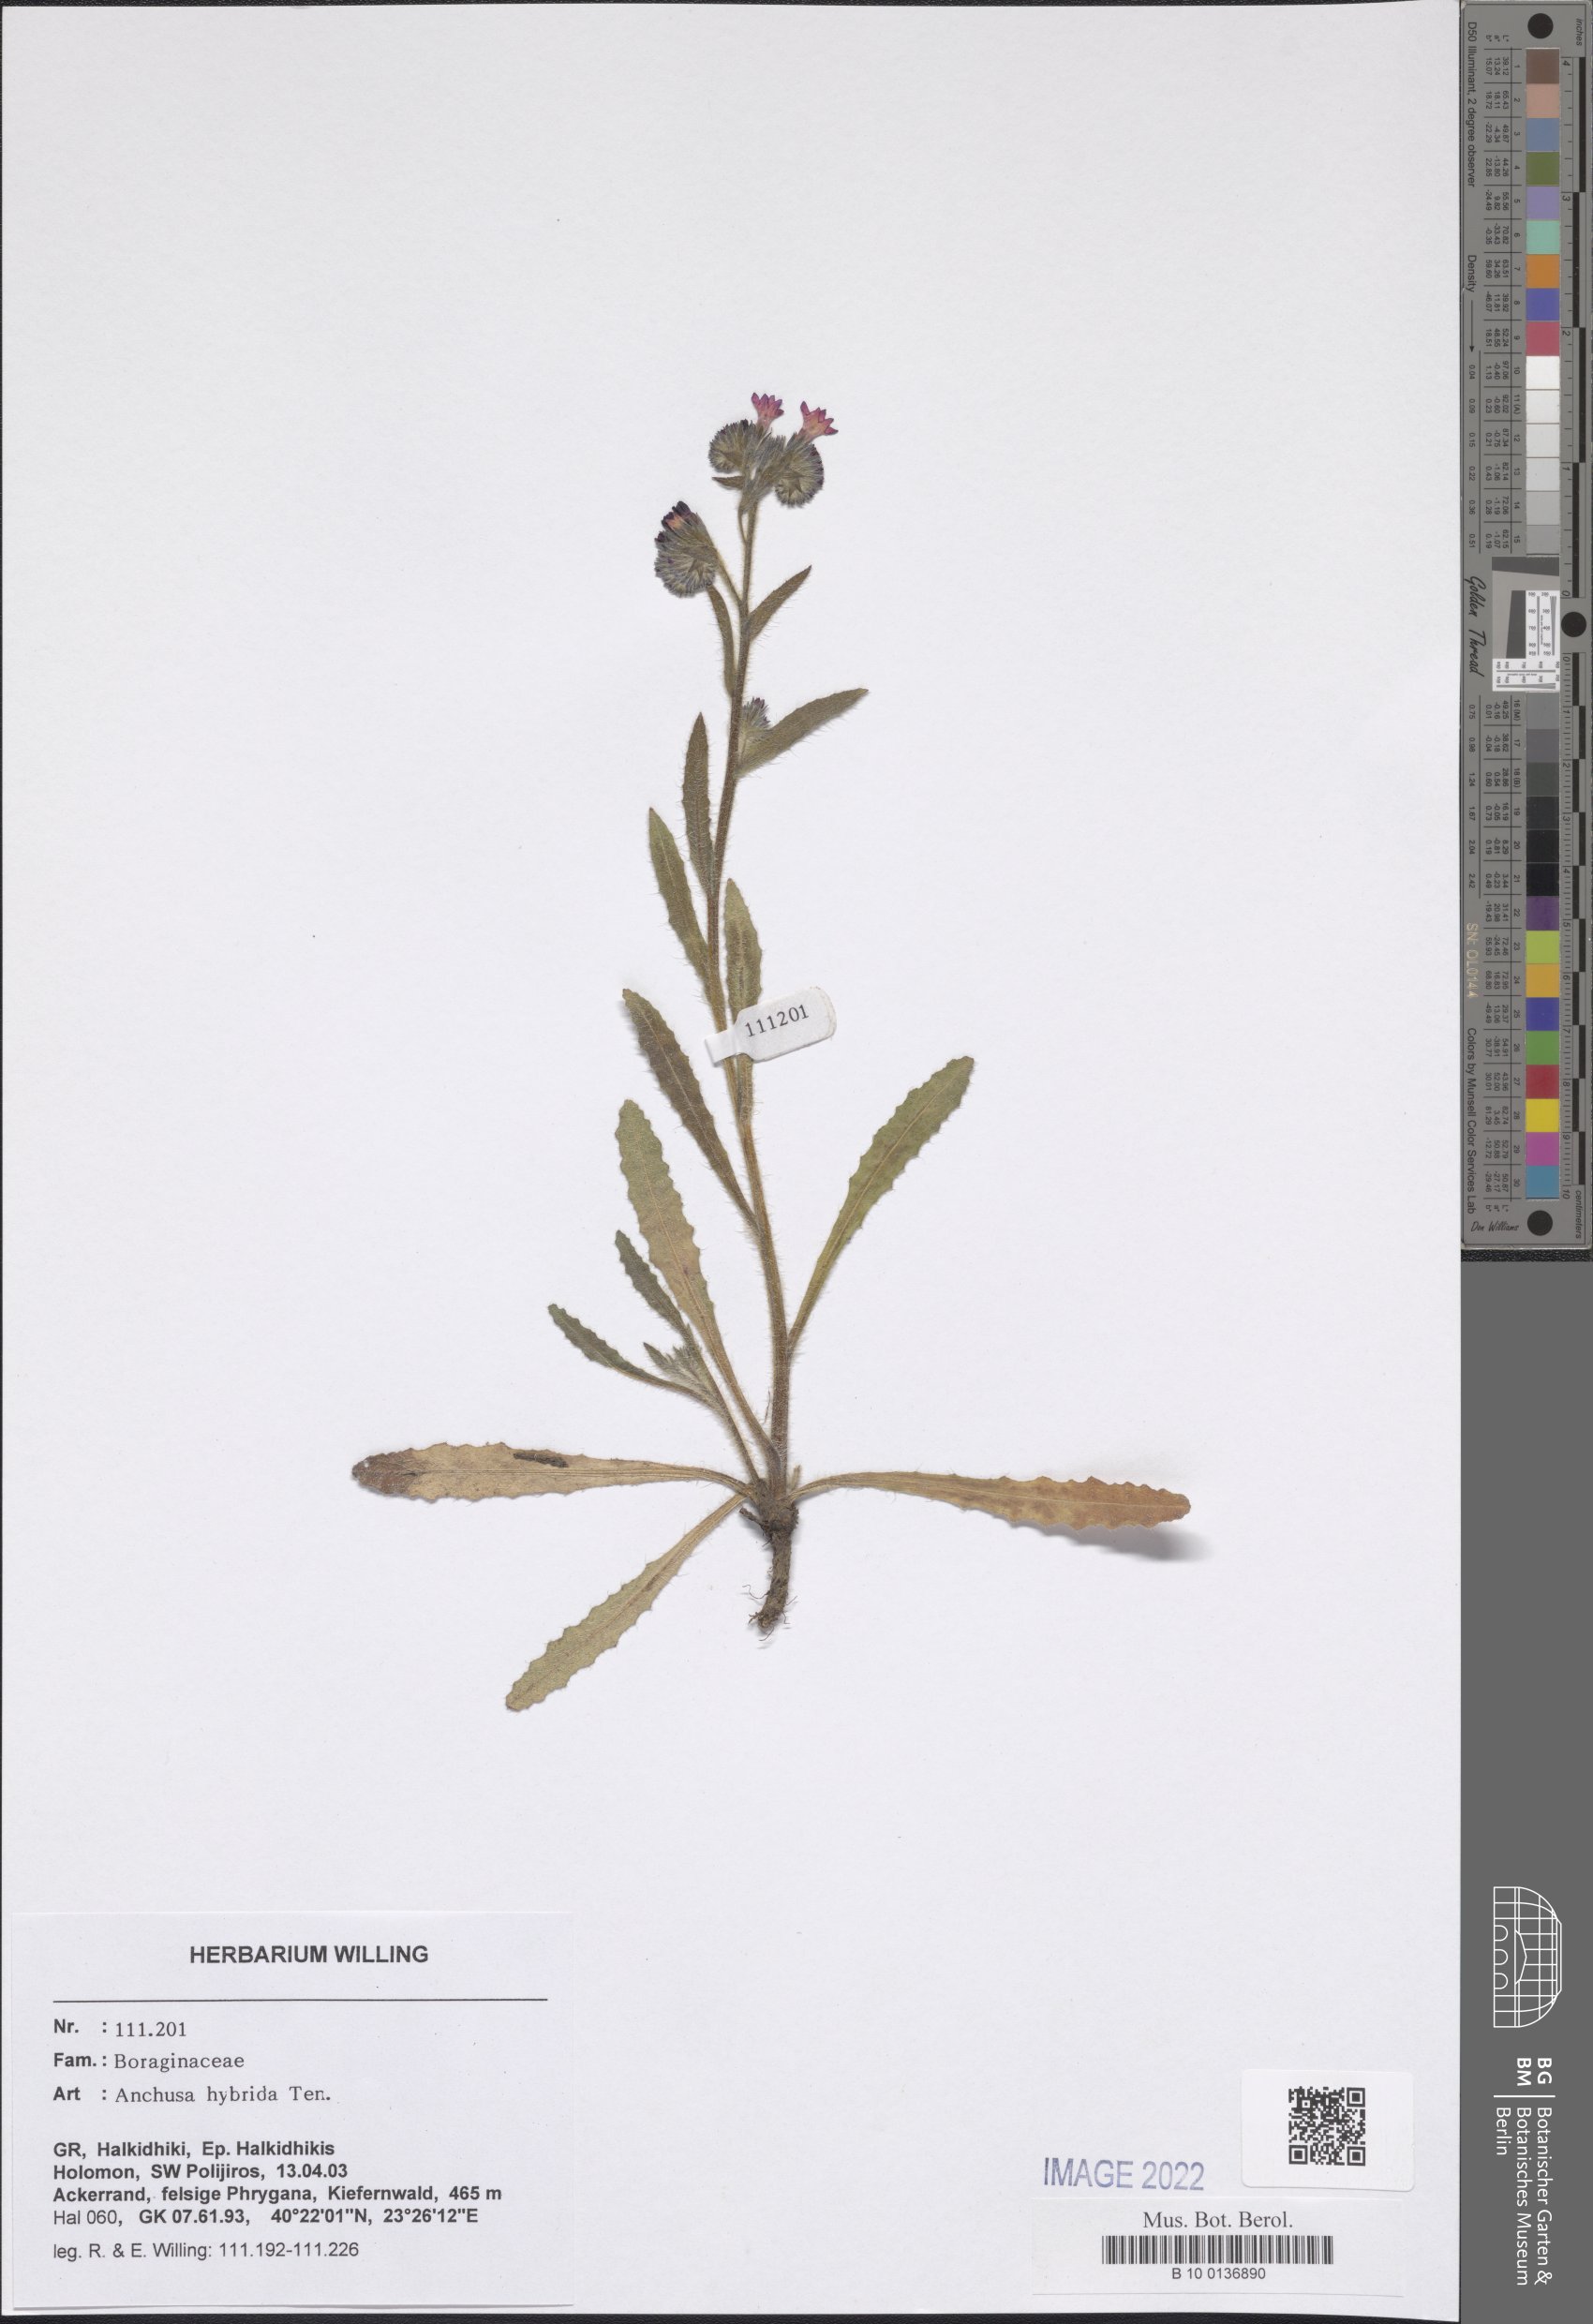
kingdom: Plantae
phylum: Tracheophyta
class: Magnoliopsida
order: Boraginales
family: Boraginaceae
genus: Anchusa
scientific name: Anchusa hybrida
